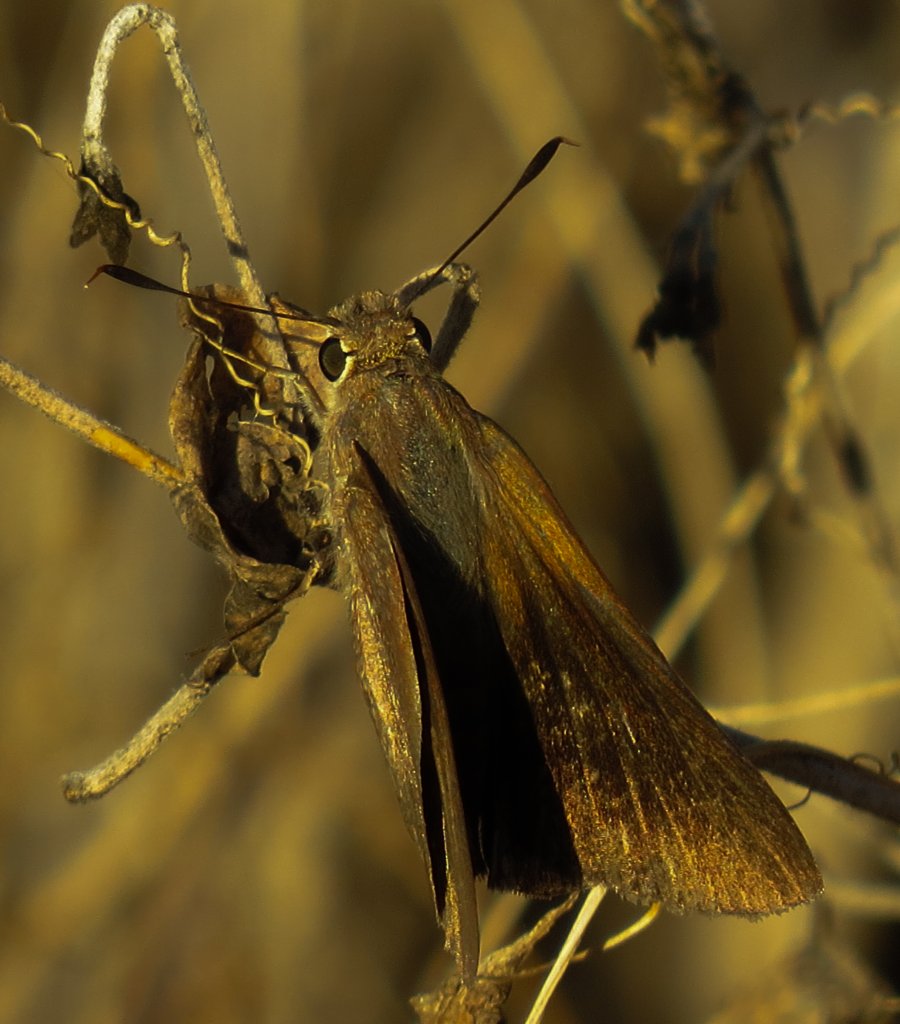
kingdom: Animalia
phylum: Arthropoda
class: Insecta
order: Lepidoptera
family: Hesperiidae
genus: Asbolis
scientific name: Asbolis capucinus
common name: Monk Skipper
